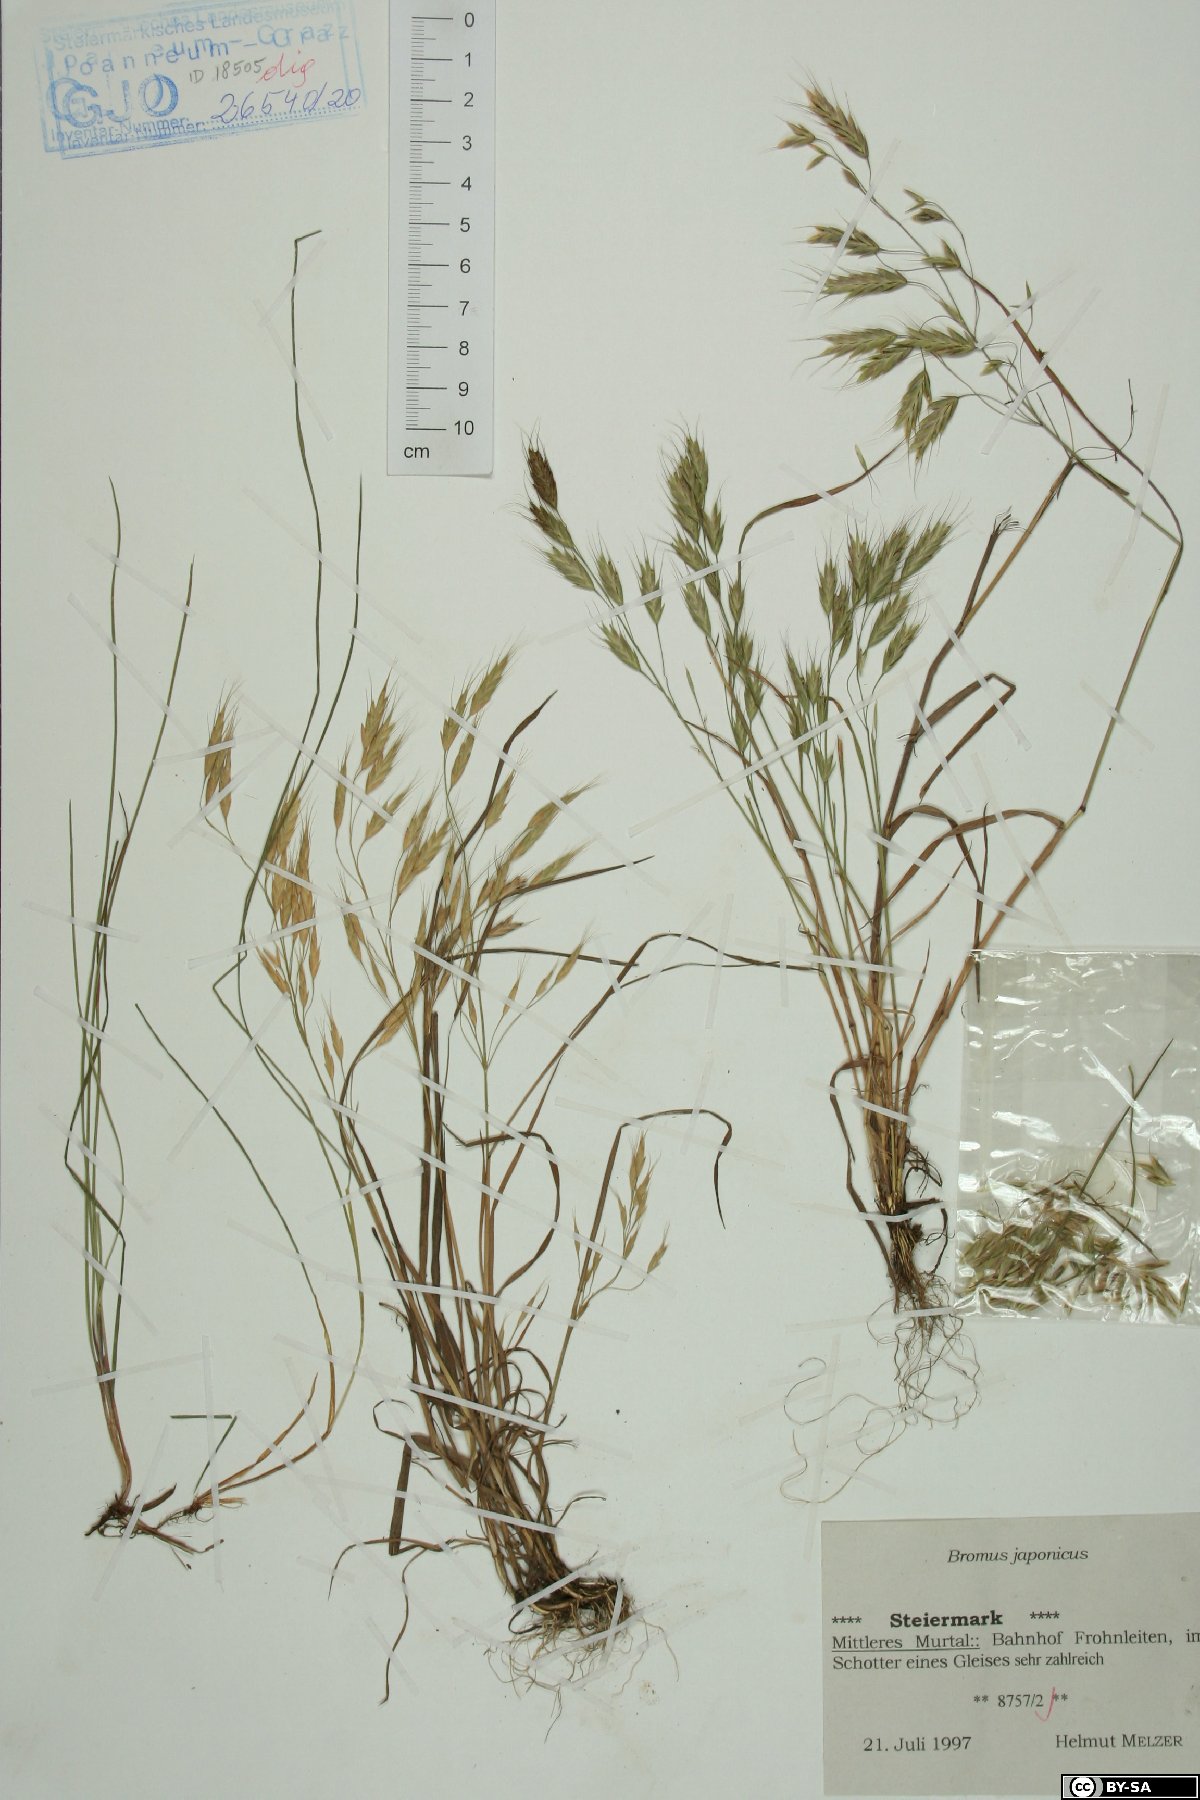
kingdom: Plantae
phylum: Tracheophyta
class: Liliopsida
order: Poales
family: Poaceae
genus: Bromus
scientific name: Bromus japonicus
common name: Japanese brome
